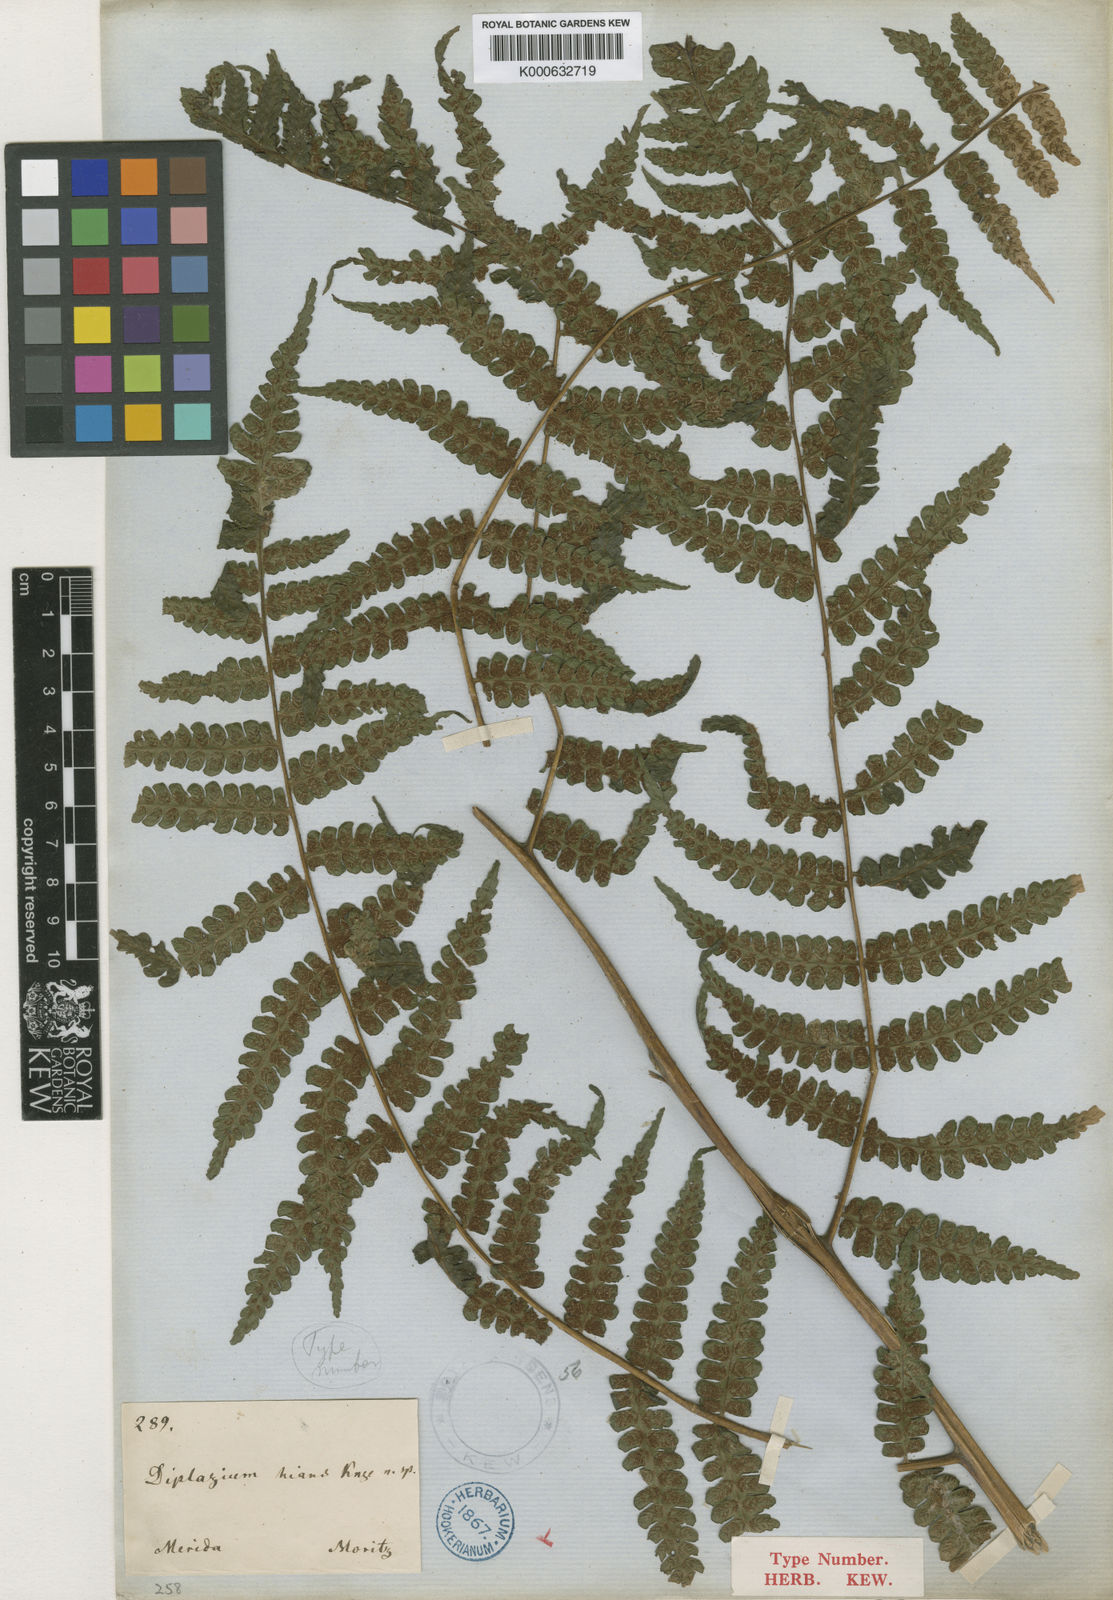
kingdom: Plantae
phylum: Tracheophyta
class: Polypodiopsida
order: Polypodiales
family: Athyriaceae
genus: Diplazium
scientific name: Diplazium
